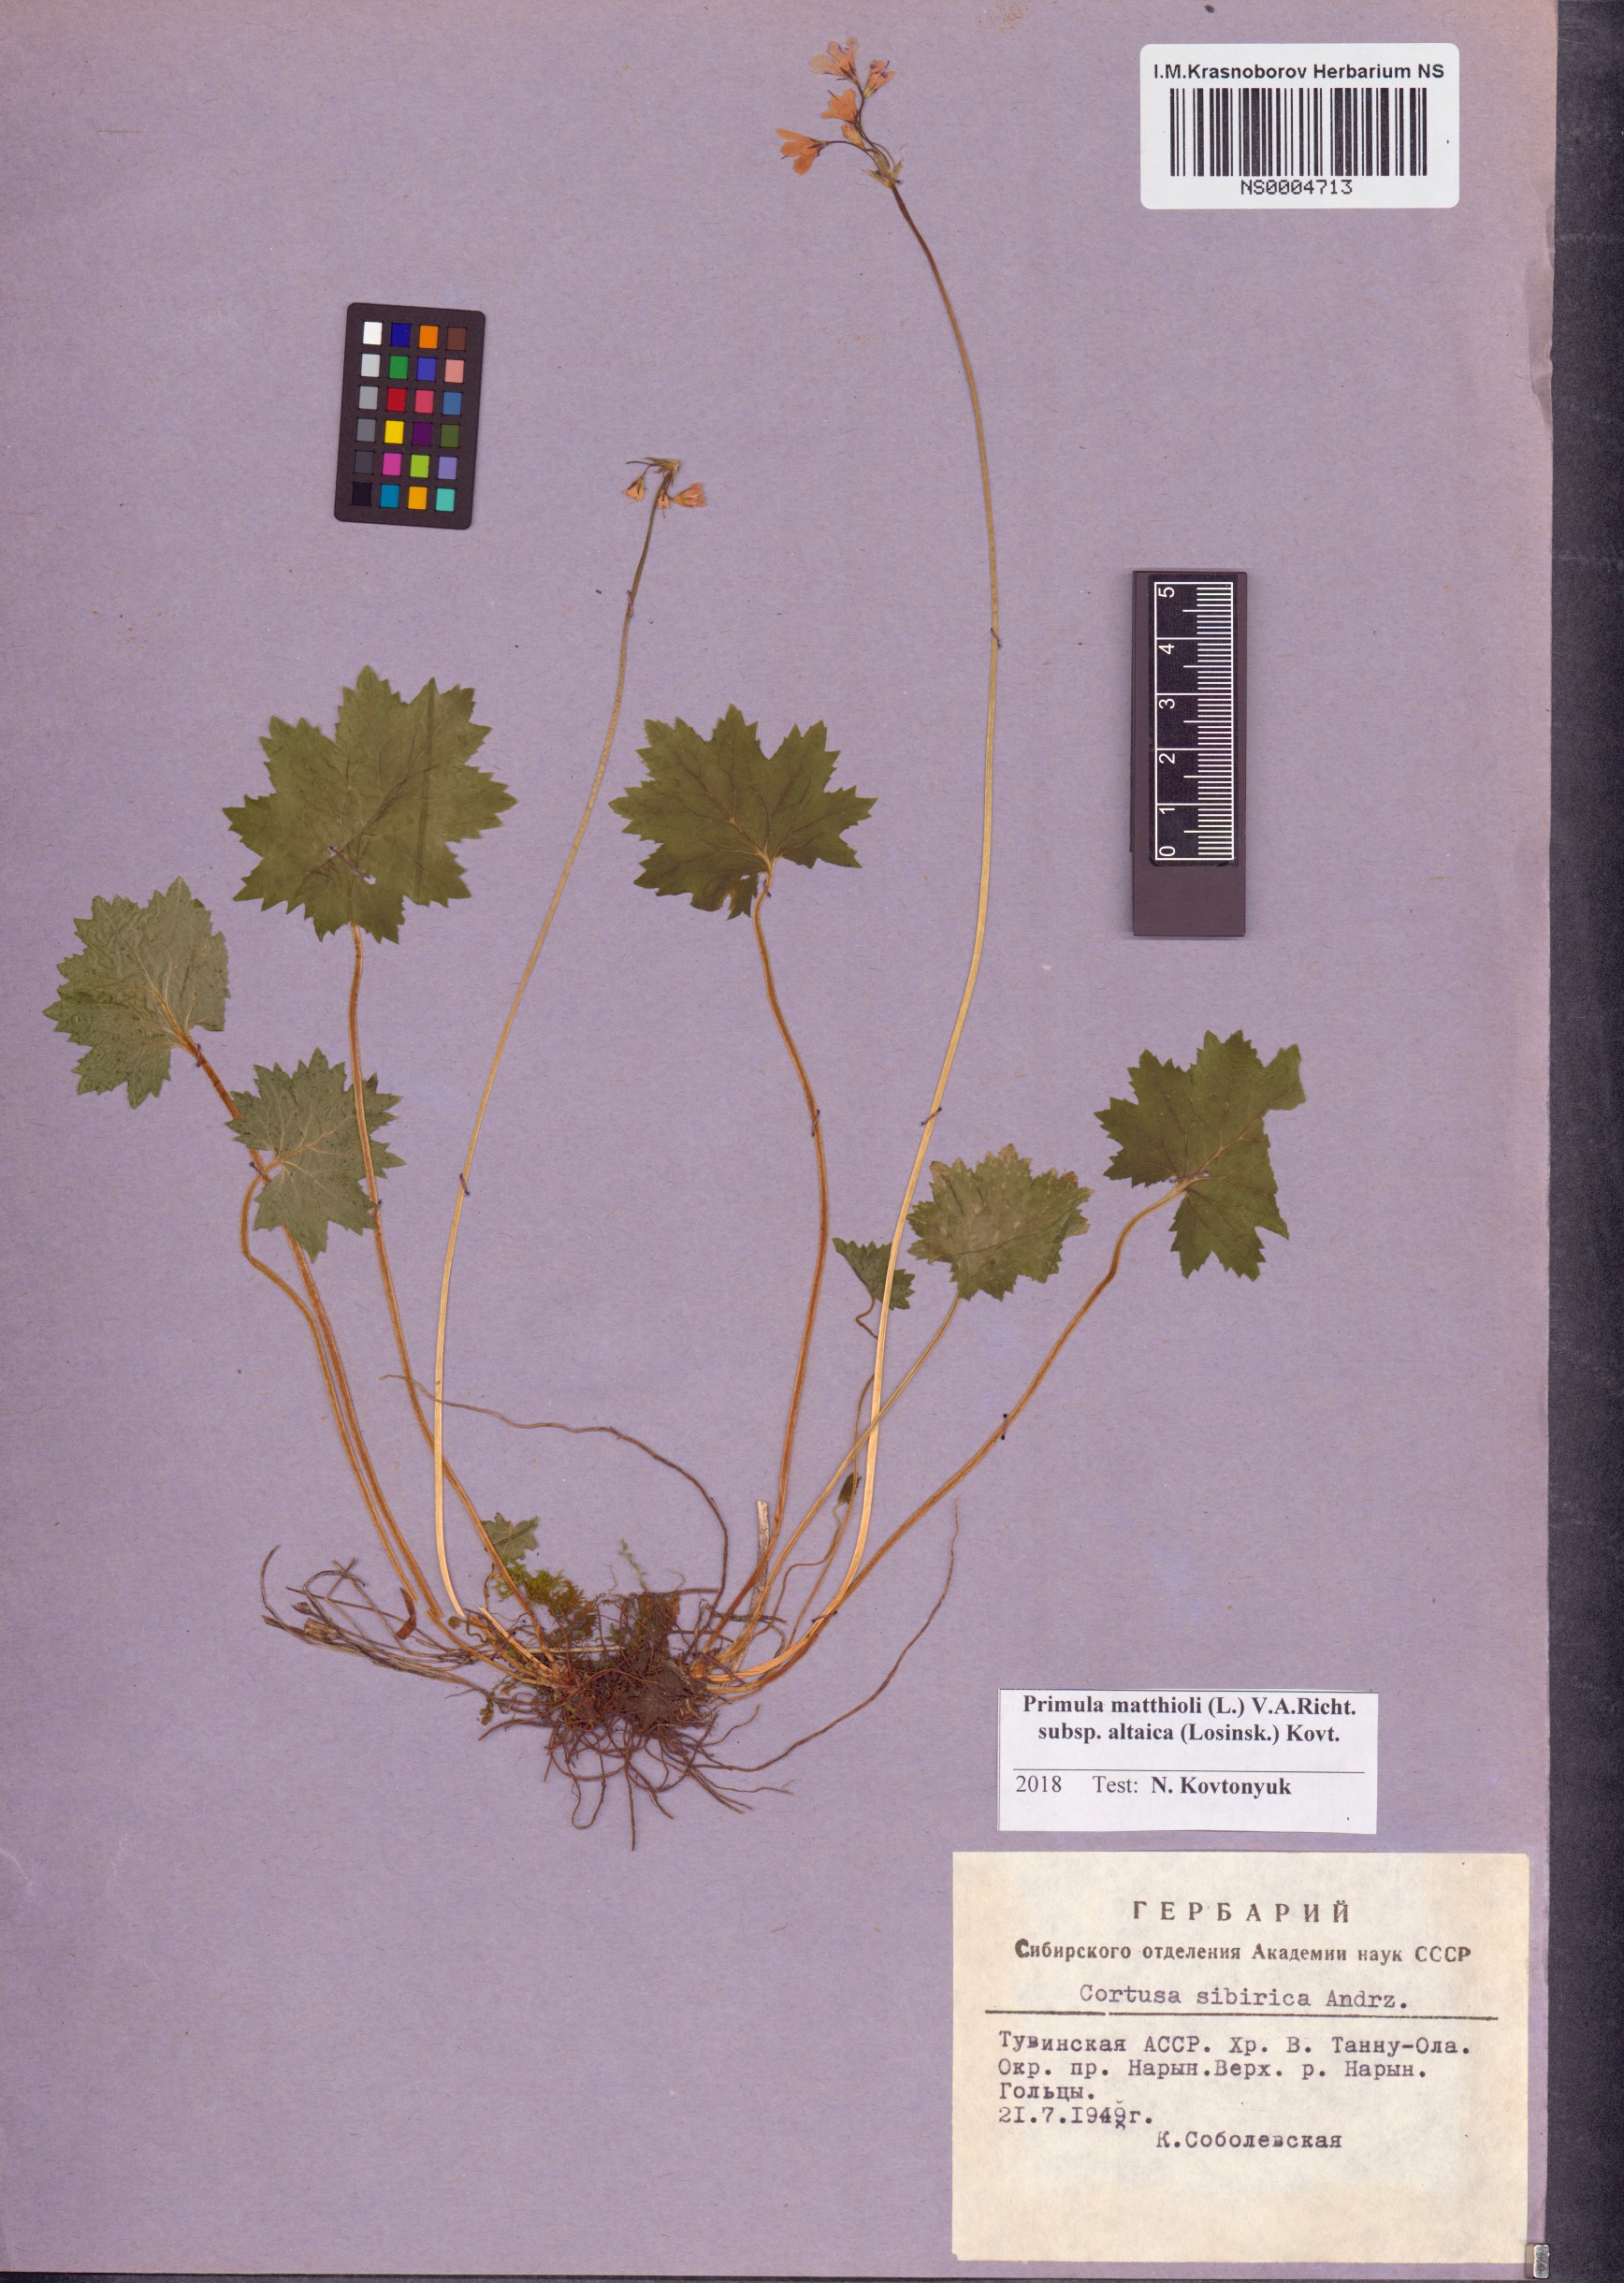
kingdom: Plantae
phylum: Tracheophyta
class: Magnoliopsida
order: Ericales
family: Primulaceae
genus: Primula
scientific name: Primula matthioli
